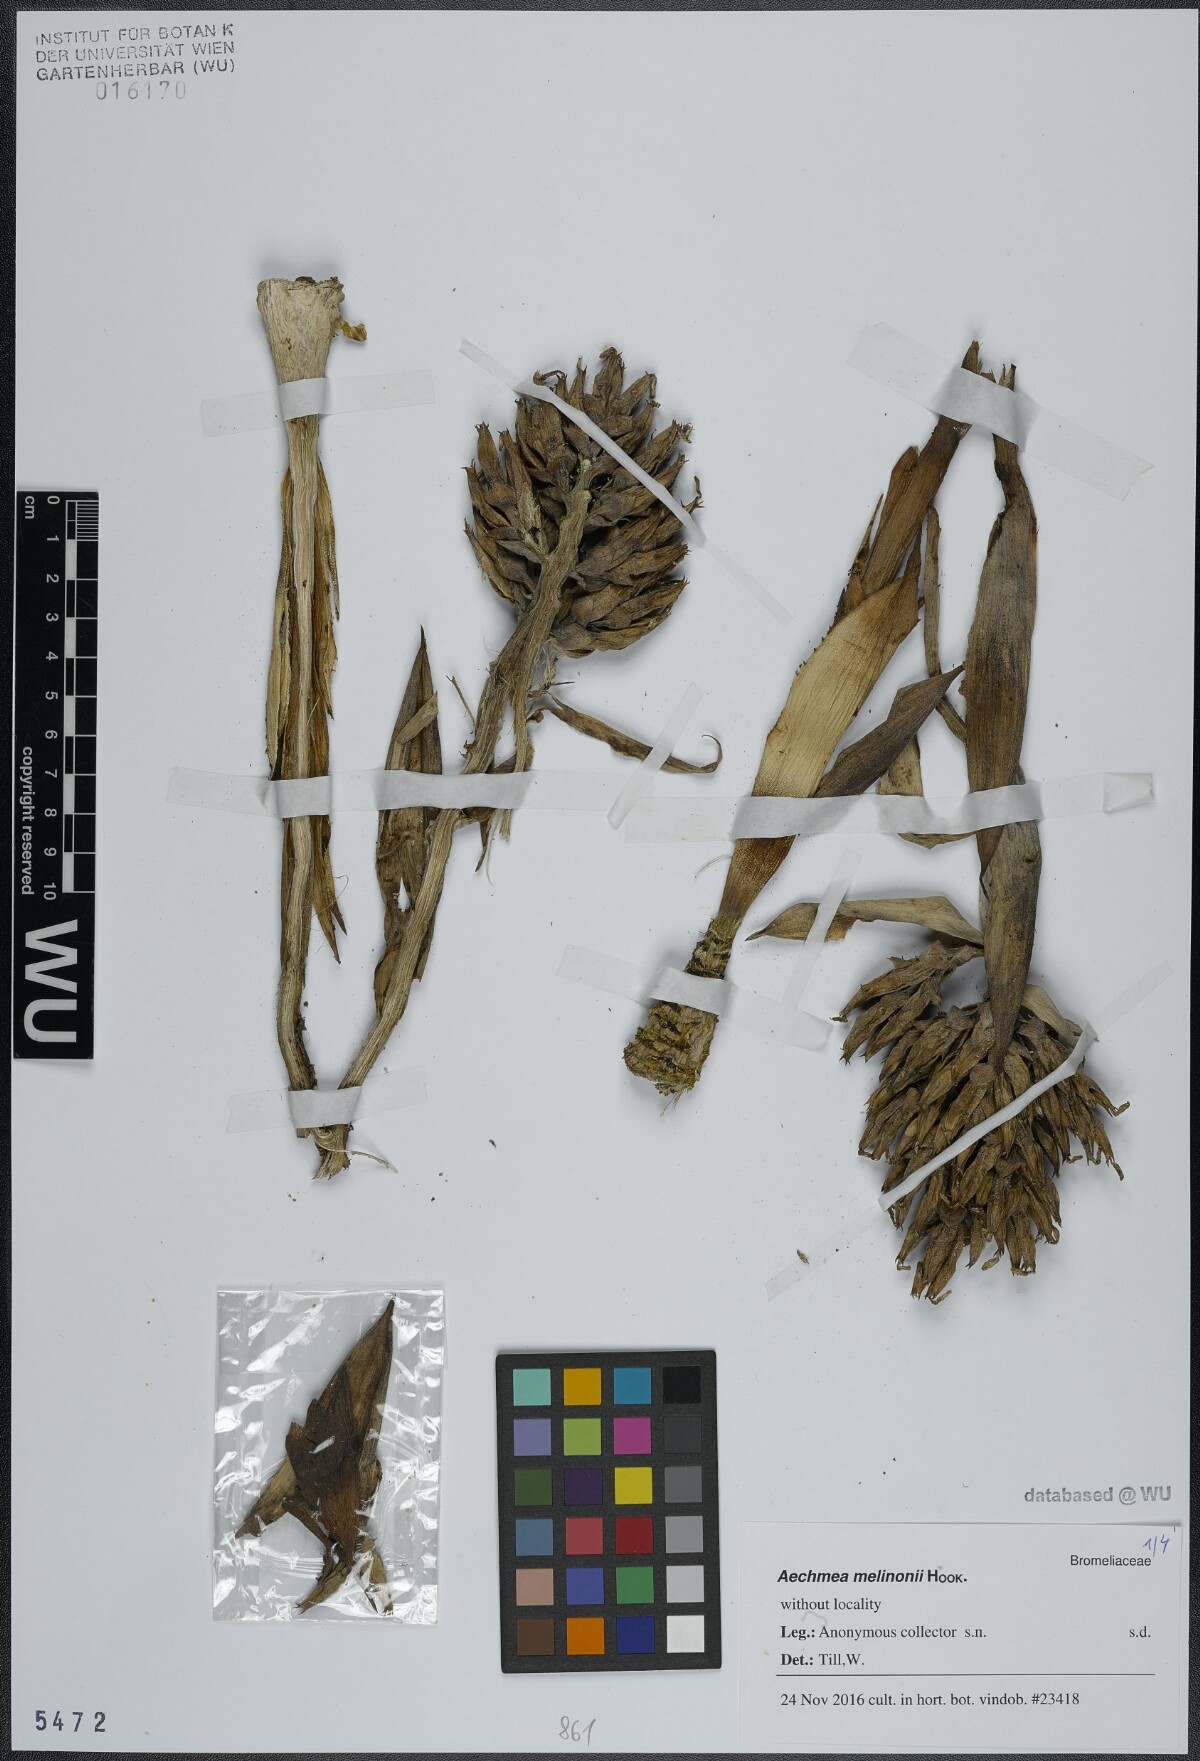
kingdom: Plantae
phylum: Tracheophyta
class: Liliopsida
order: Poales
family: Bromeliaceae
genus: Aechmea
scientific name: Aechmea melinonii
